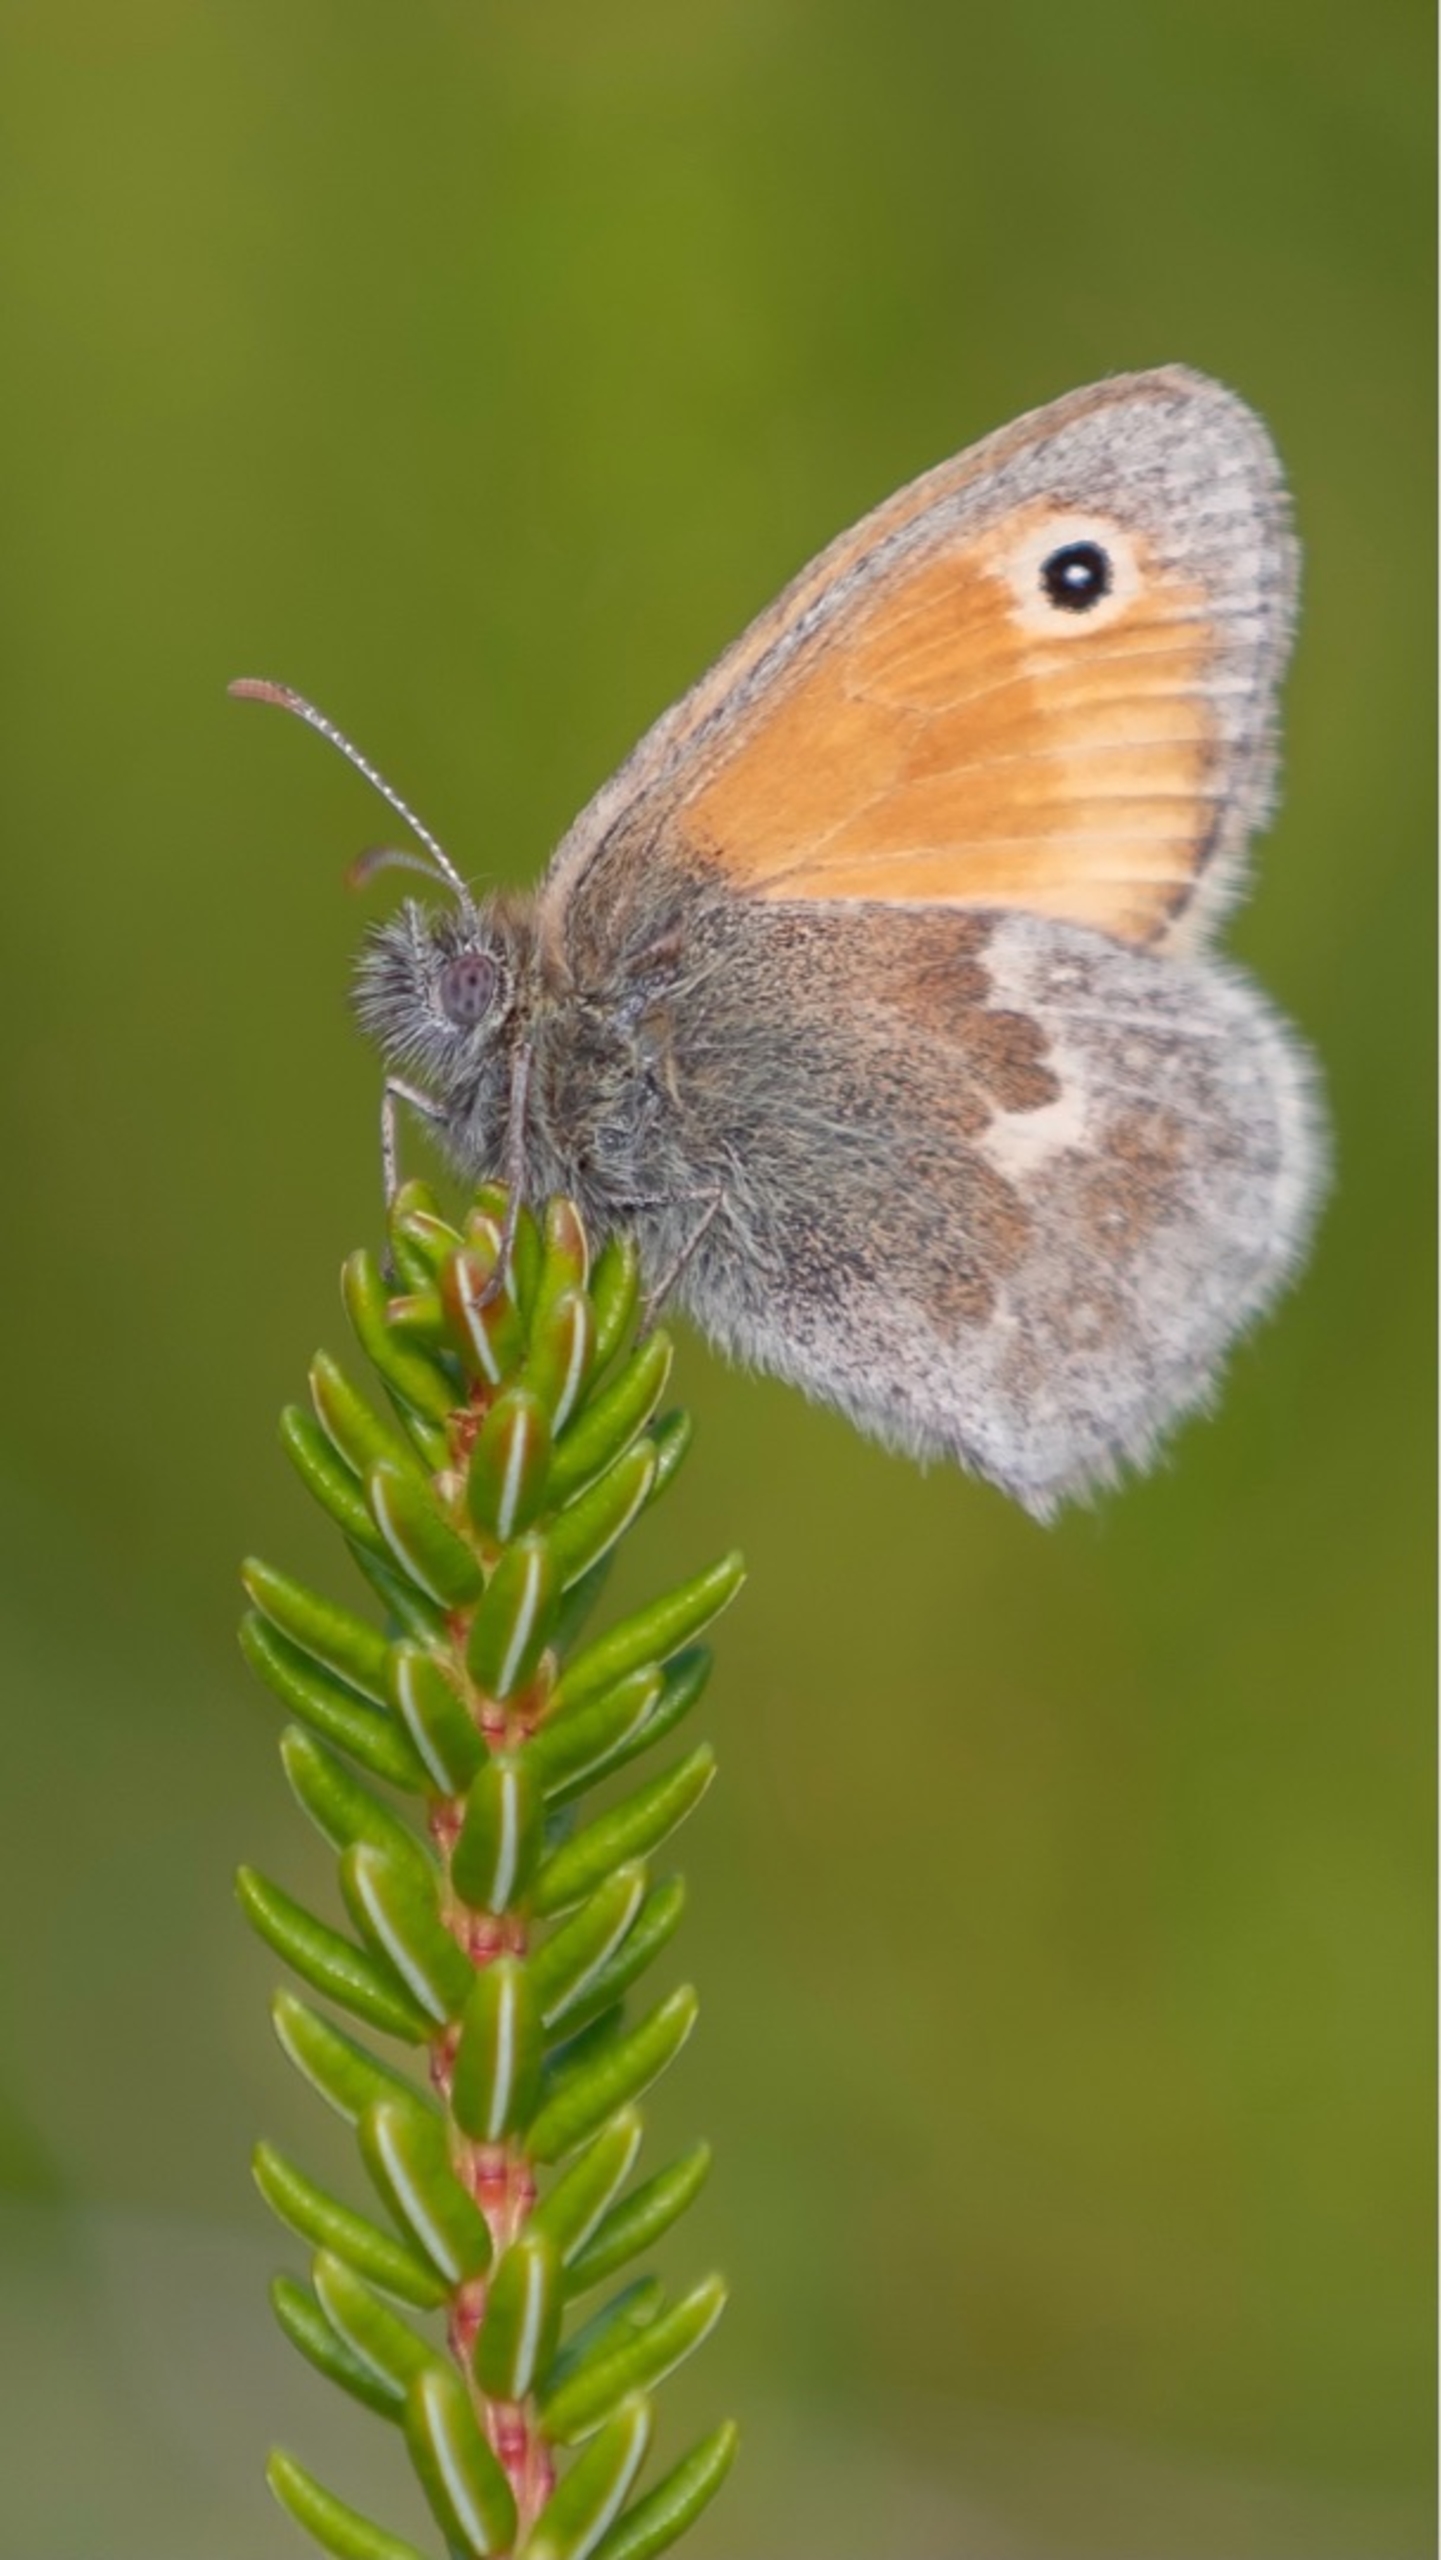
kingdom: Animalia
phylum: Arthropoda
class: Insecta
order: Lepidoptera
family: Nymphalidae
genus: Coenonympha
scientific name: Coenonympha pamphilus
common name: Okkergul randøje
